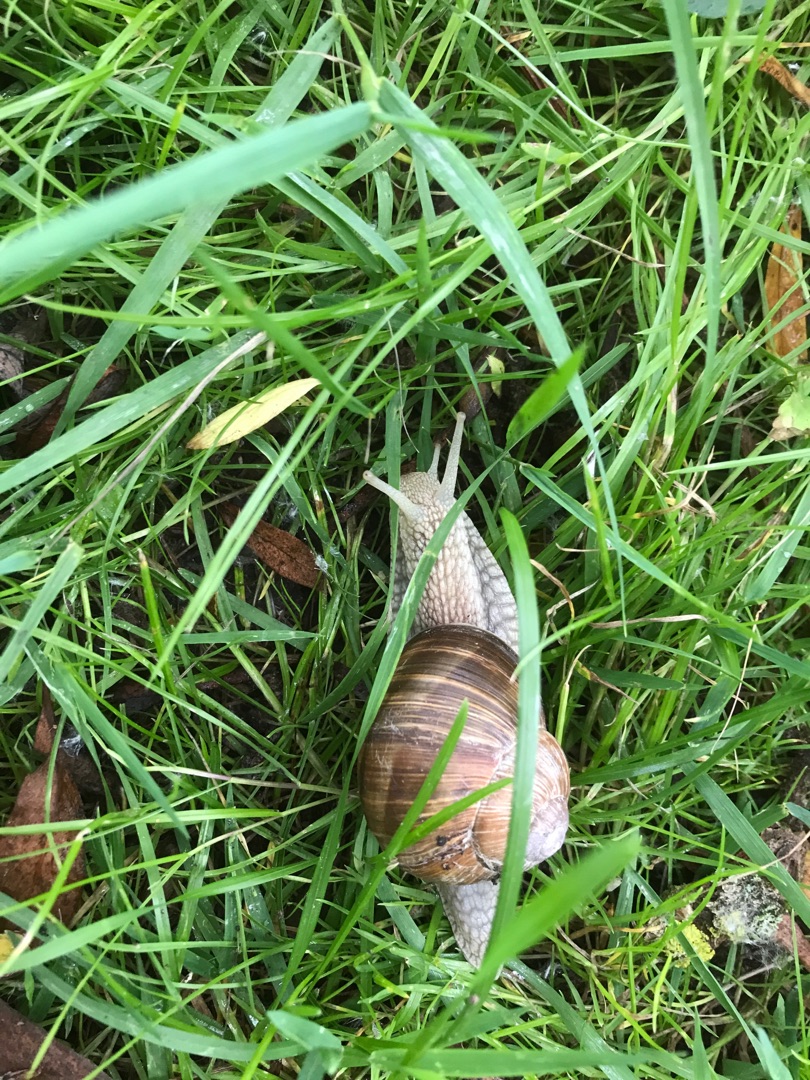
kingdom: Animalia
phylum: Mollusca
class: Gastropoda
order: Stylommatophora
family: Helicidae
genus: Helix
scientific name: Helix pomatia
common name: Vinbjergsnegl
